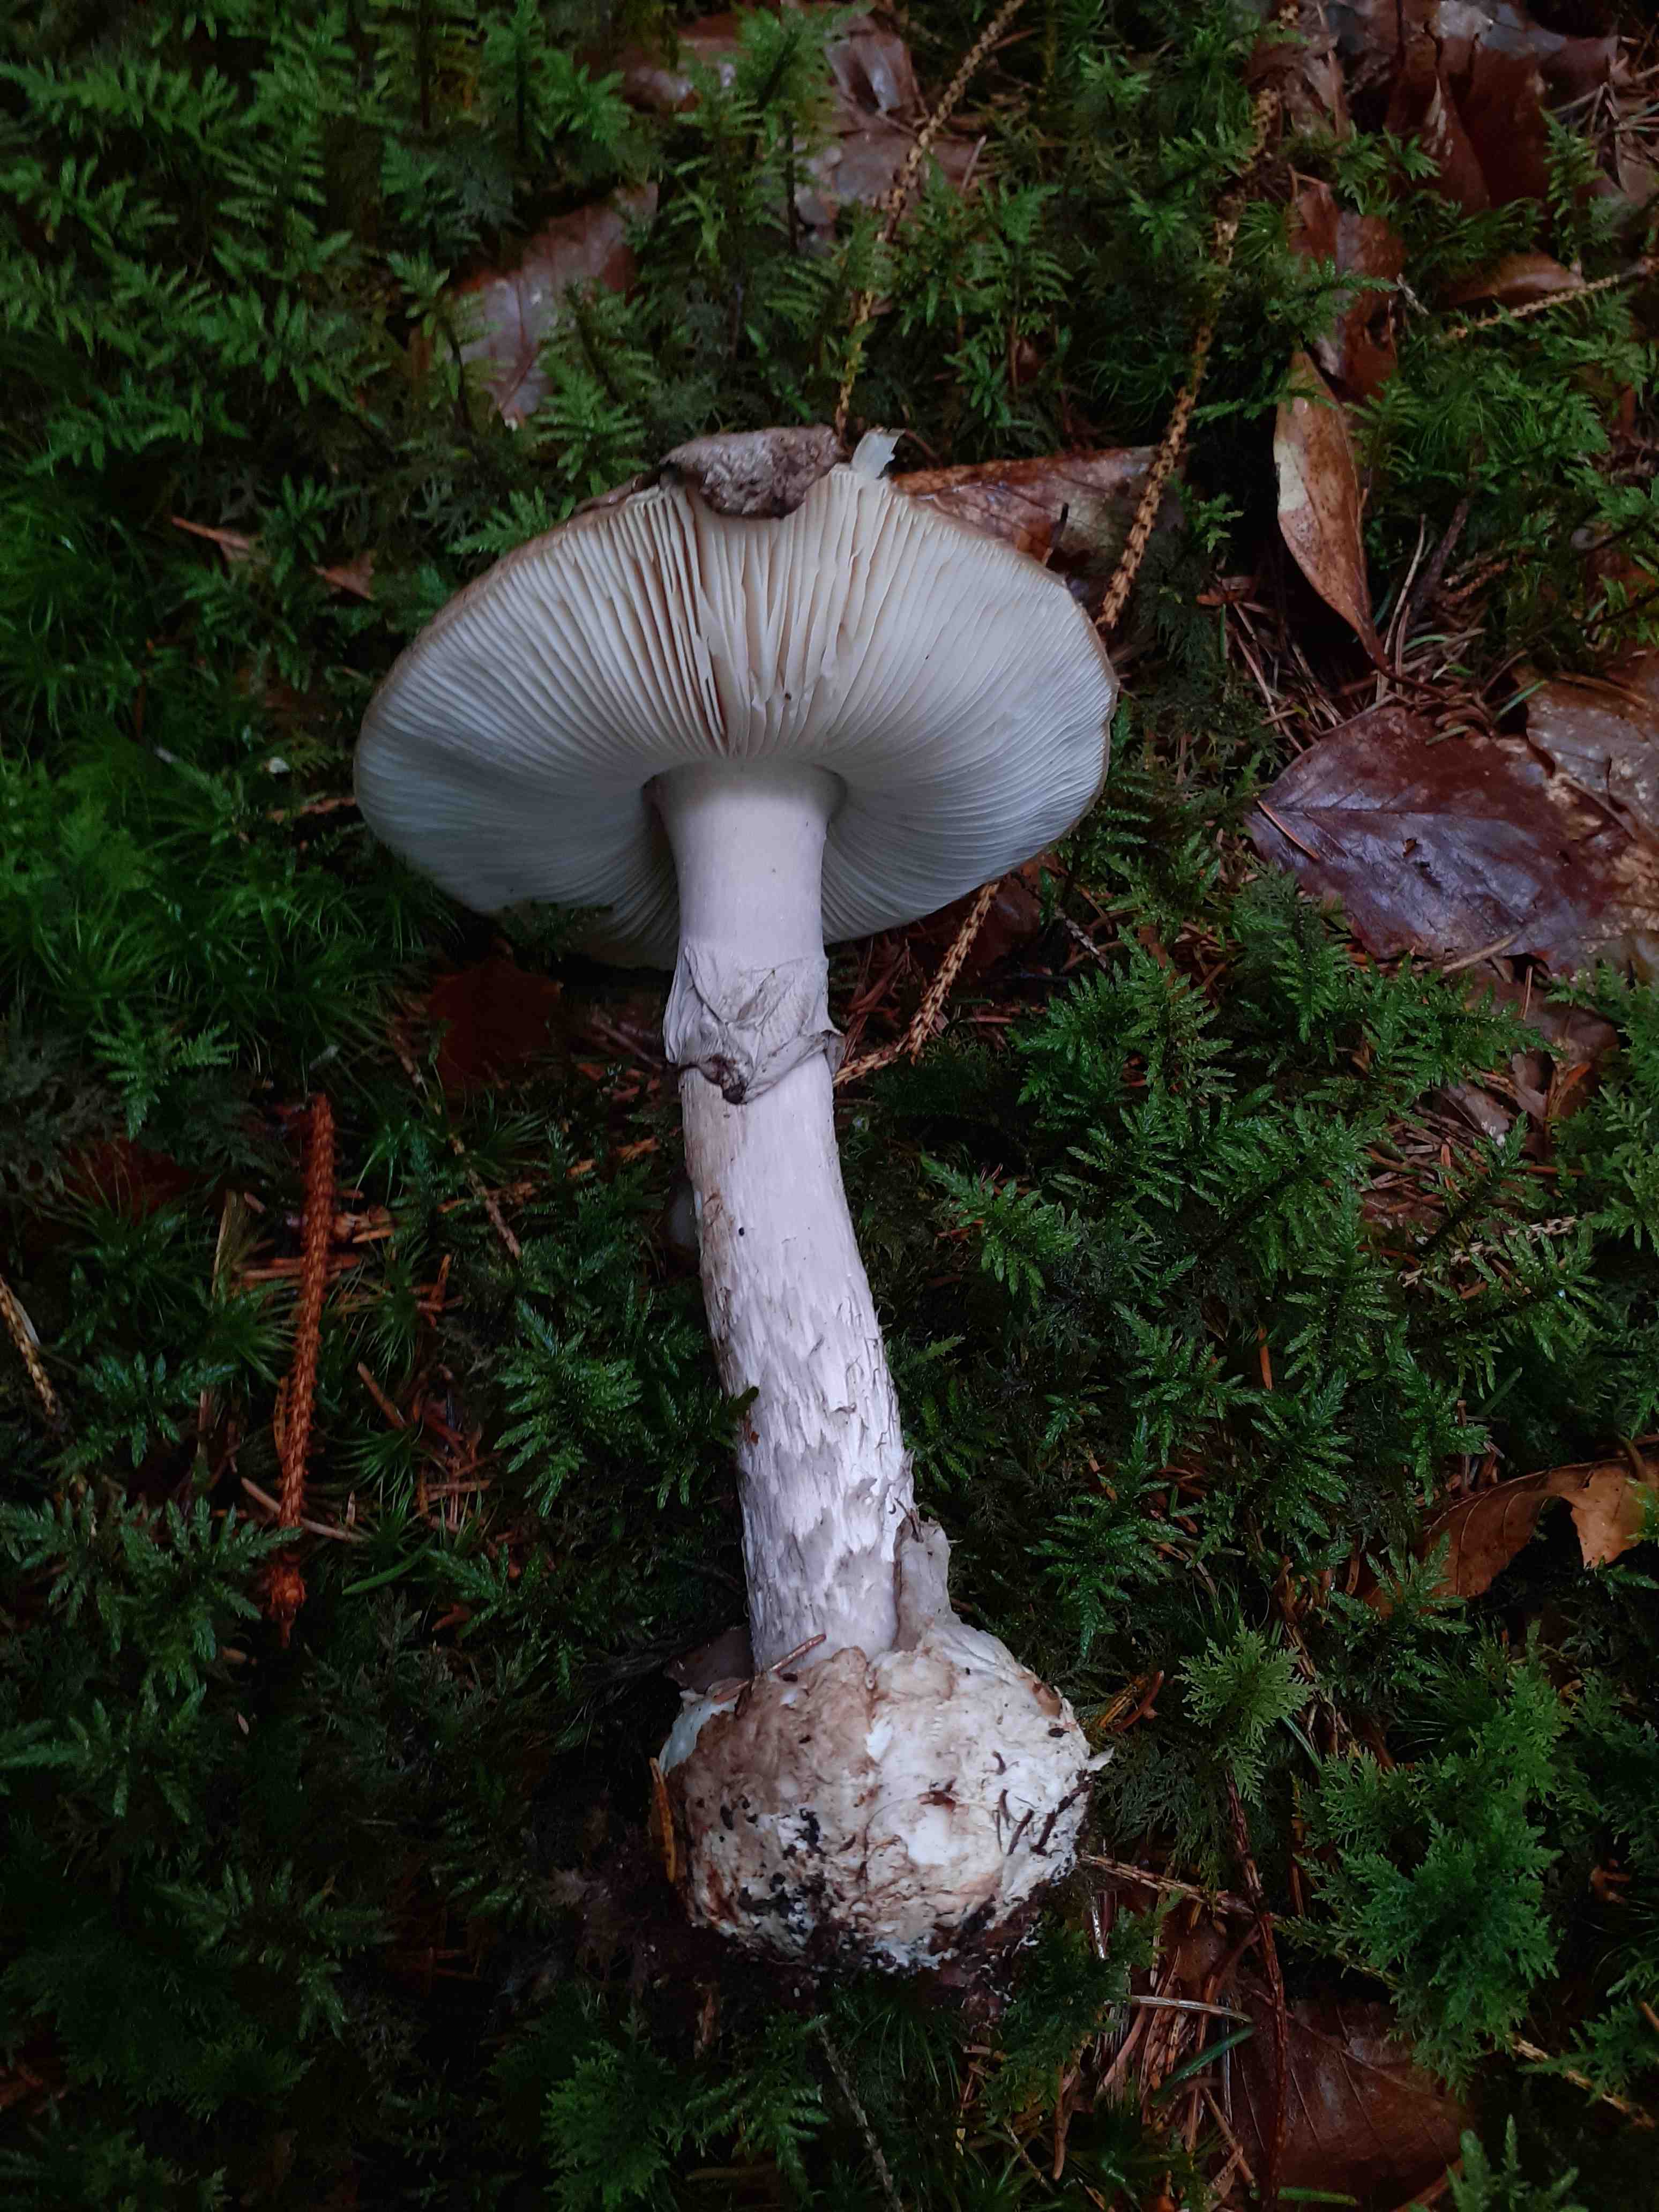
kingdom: Fungi
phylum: Basidiomycota
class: Agaricomycetes
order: Agaricales
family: Amanitaceae
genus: Amanita
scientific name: Amanita porphyria
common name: porfyr-fluesvamp
